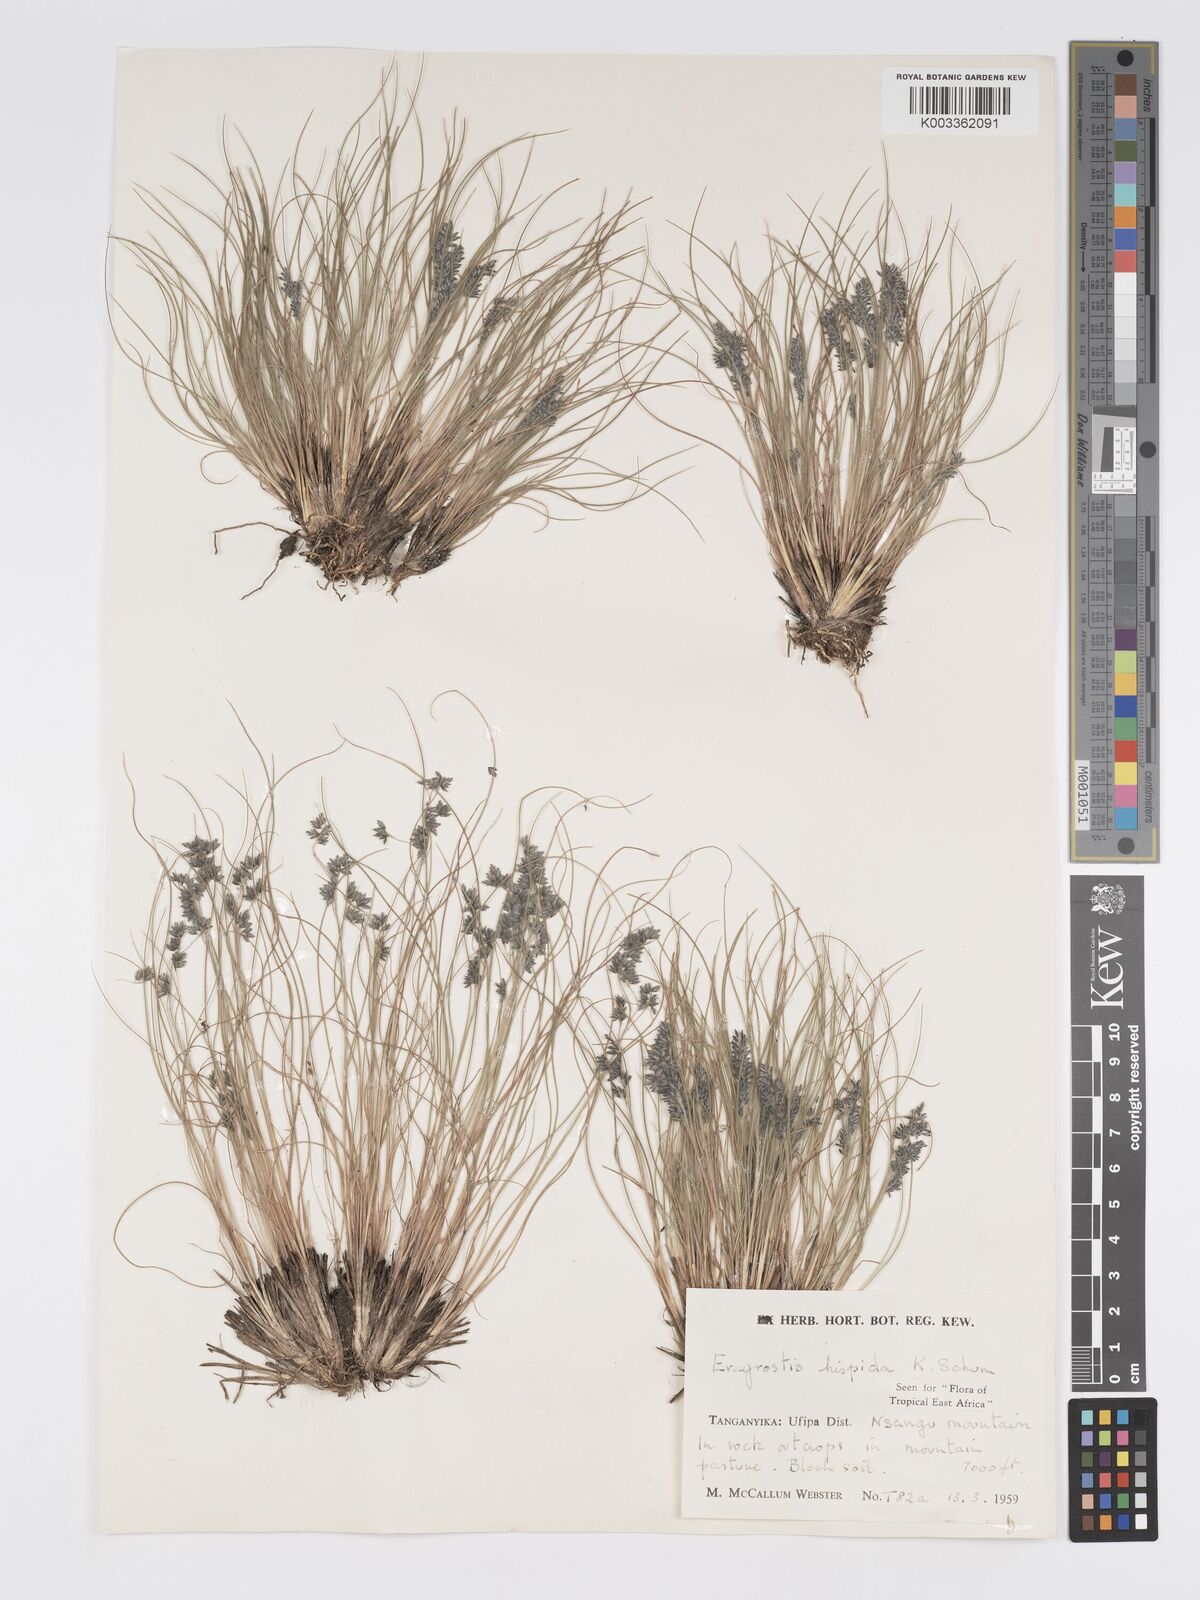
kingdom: Plantae
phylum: Tracheophyta
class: Liliopsida
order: Poales
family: Poaceae
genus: Eragrostis
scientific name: Eragrostis hispida
